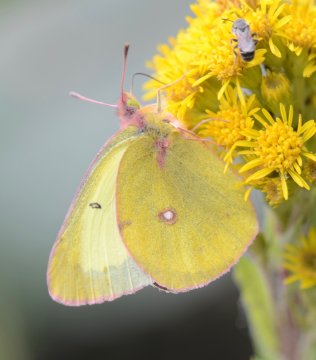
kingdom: Animalia
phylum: Arthropoda
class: Insecta
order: Lepidoptera
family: Pieridae
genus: Colias
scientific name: Colias philodice
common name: Clouded Sulphur
